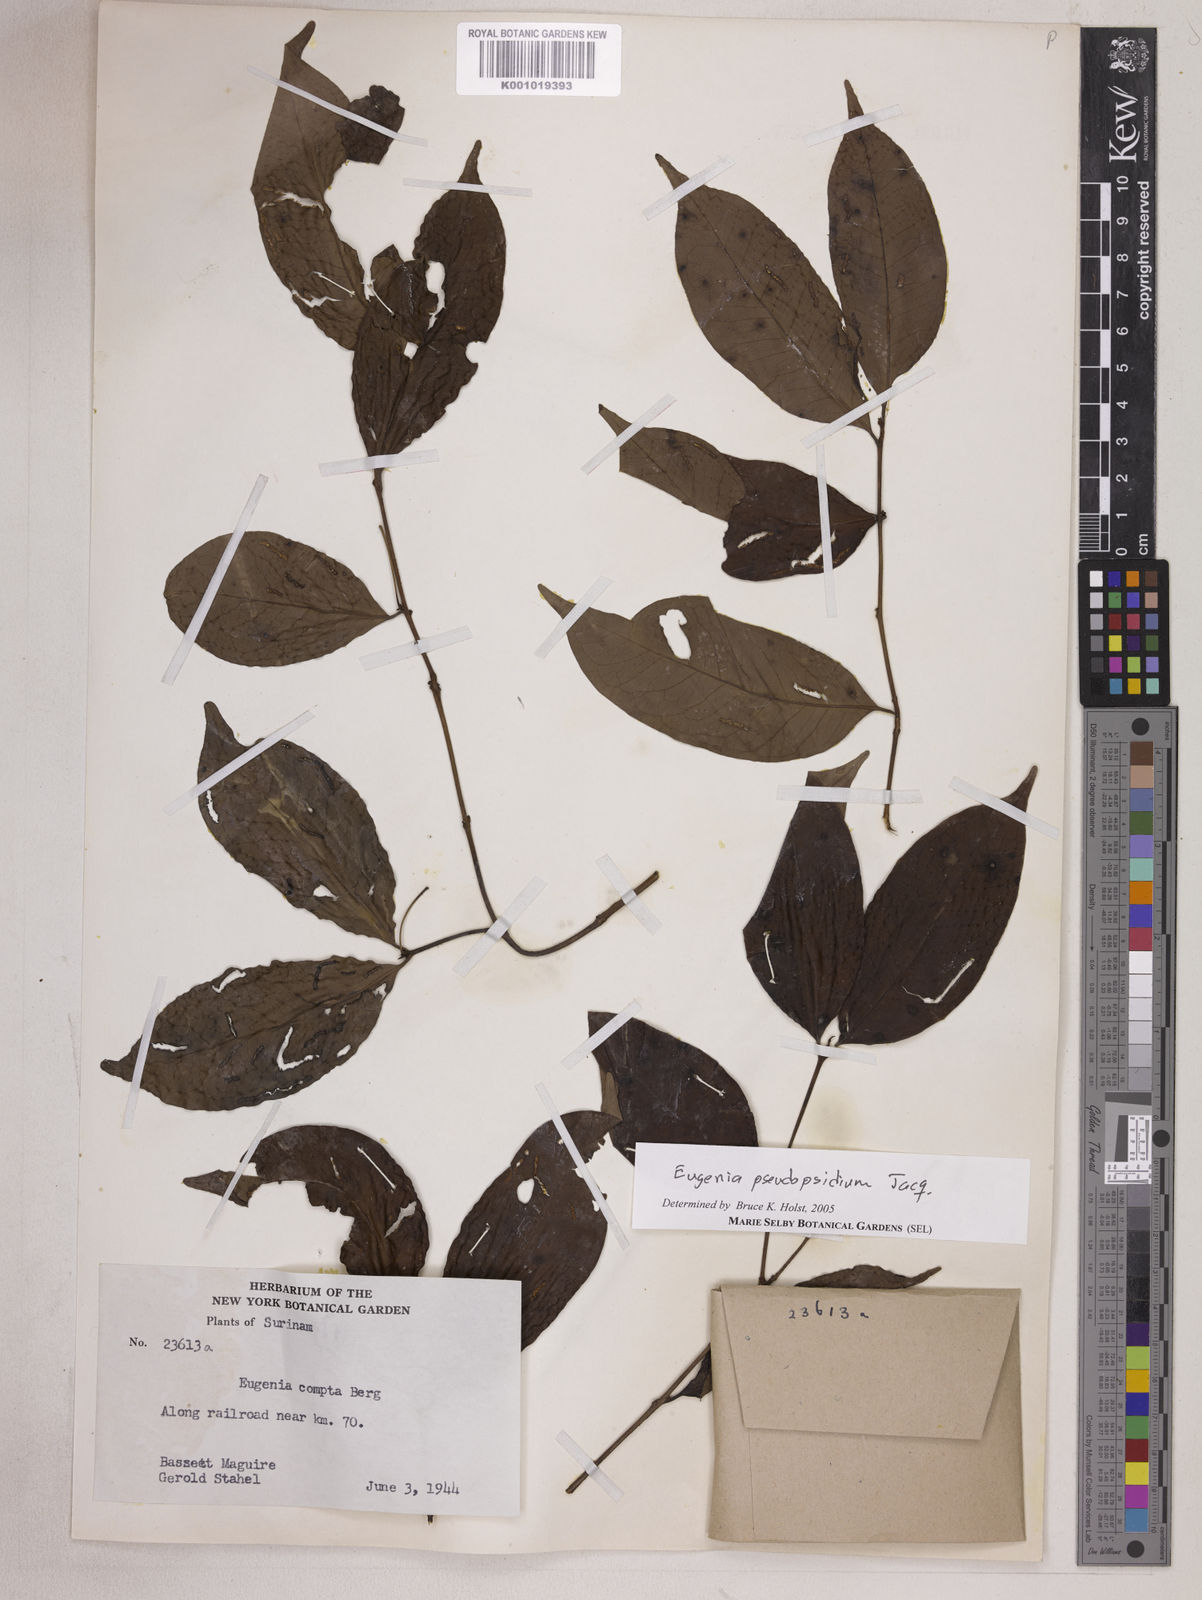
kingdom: Plantae
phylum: Tracheophyta
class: Magnoliopsida
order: Myrtales
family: Myrtaceae
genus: Eugenia
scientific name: Eugenia pseudopsidium
